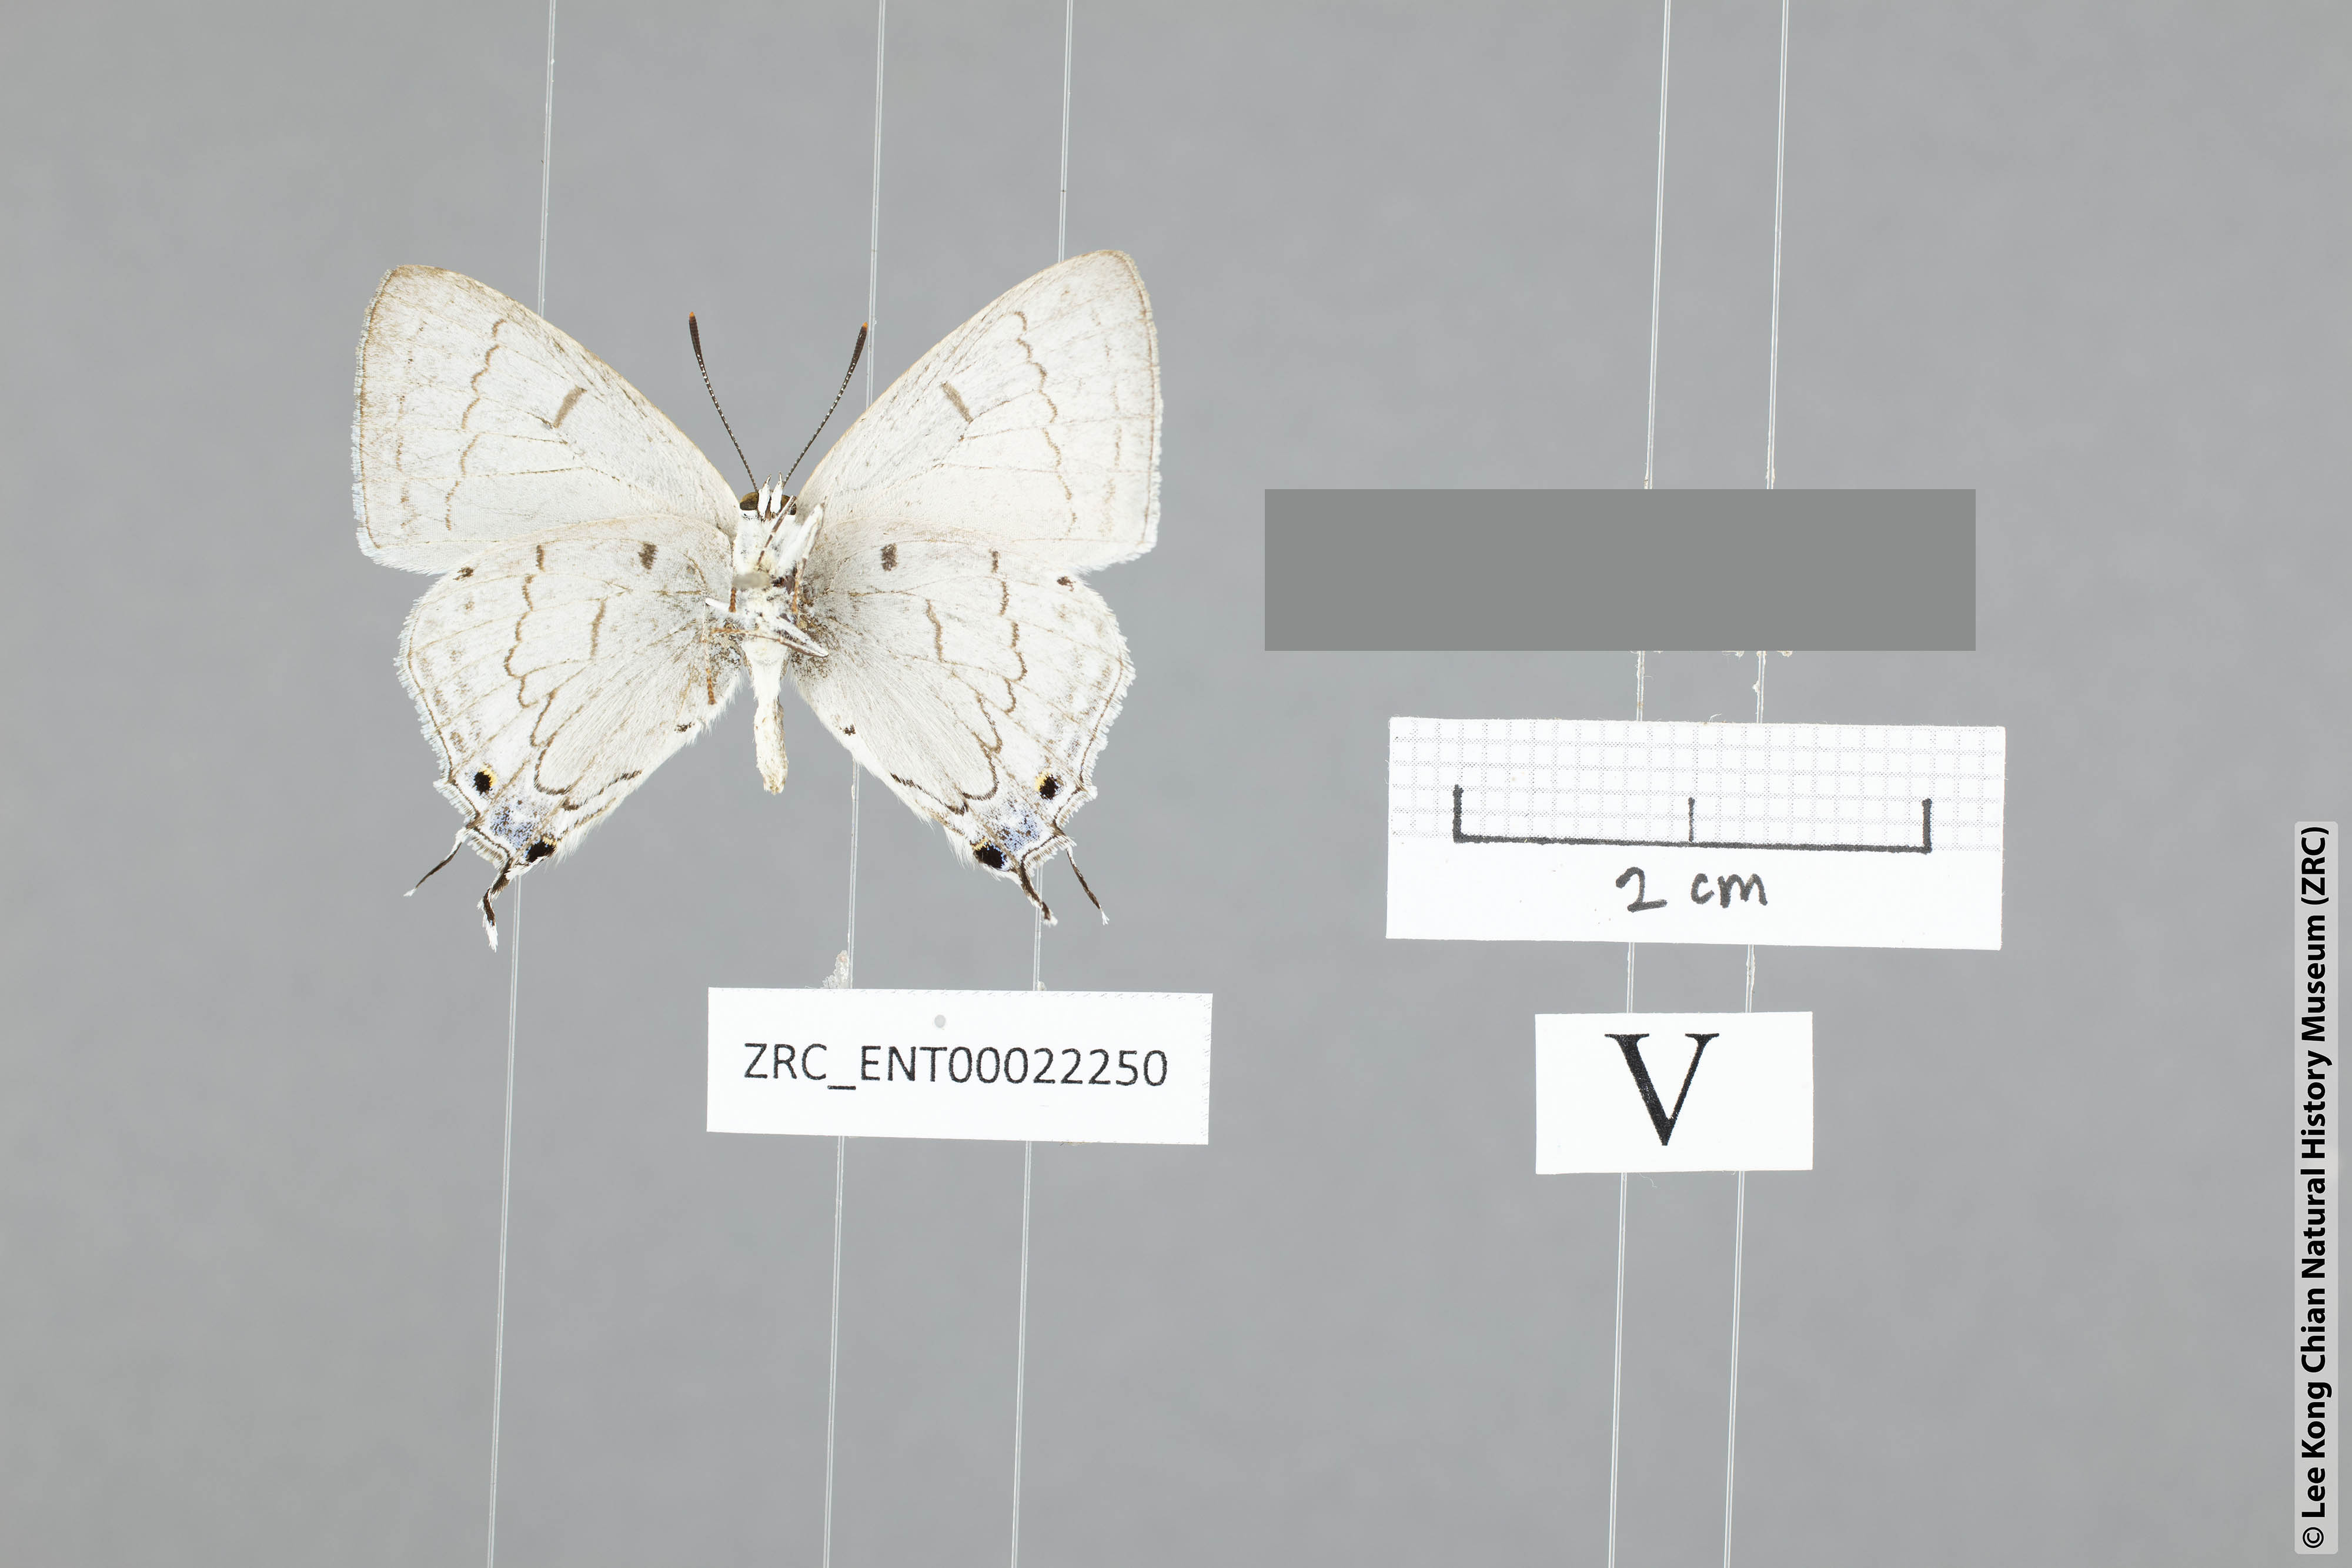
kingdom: Animalia
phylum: Arthropoda
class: Insecta
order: Lepidoptera
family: Lycaenidae
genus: Tajuria
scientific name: Tajuria
